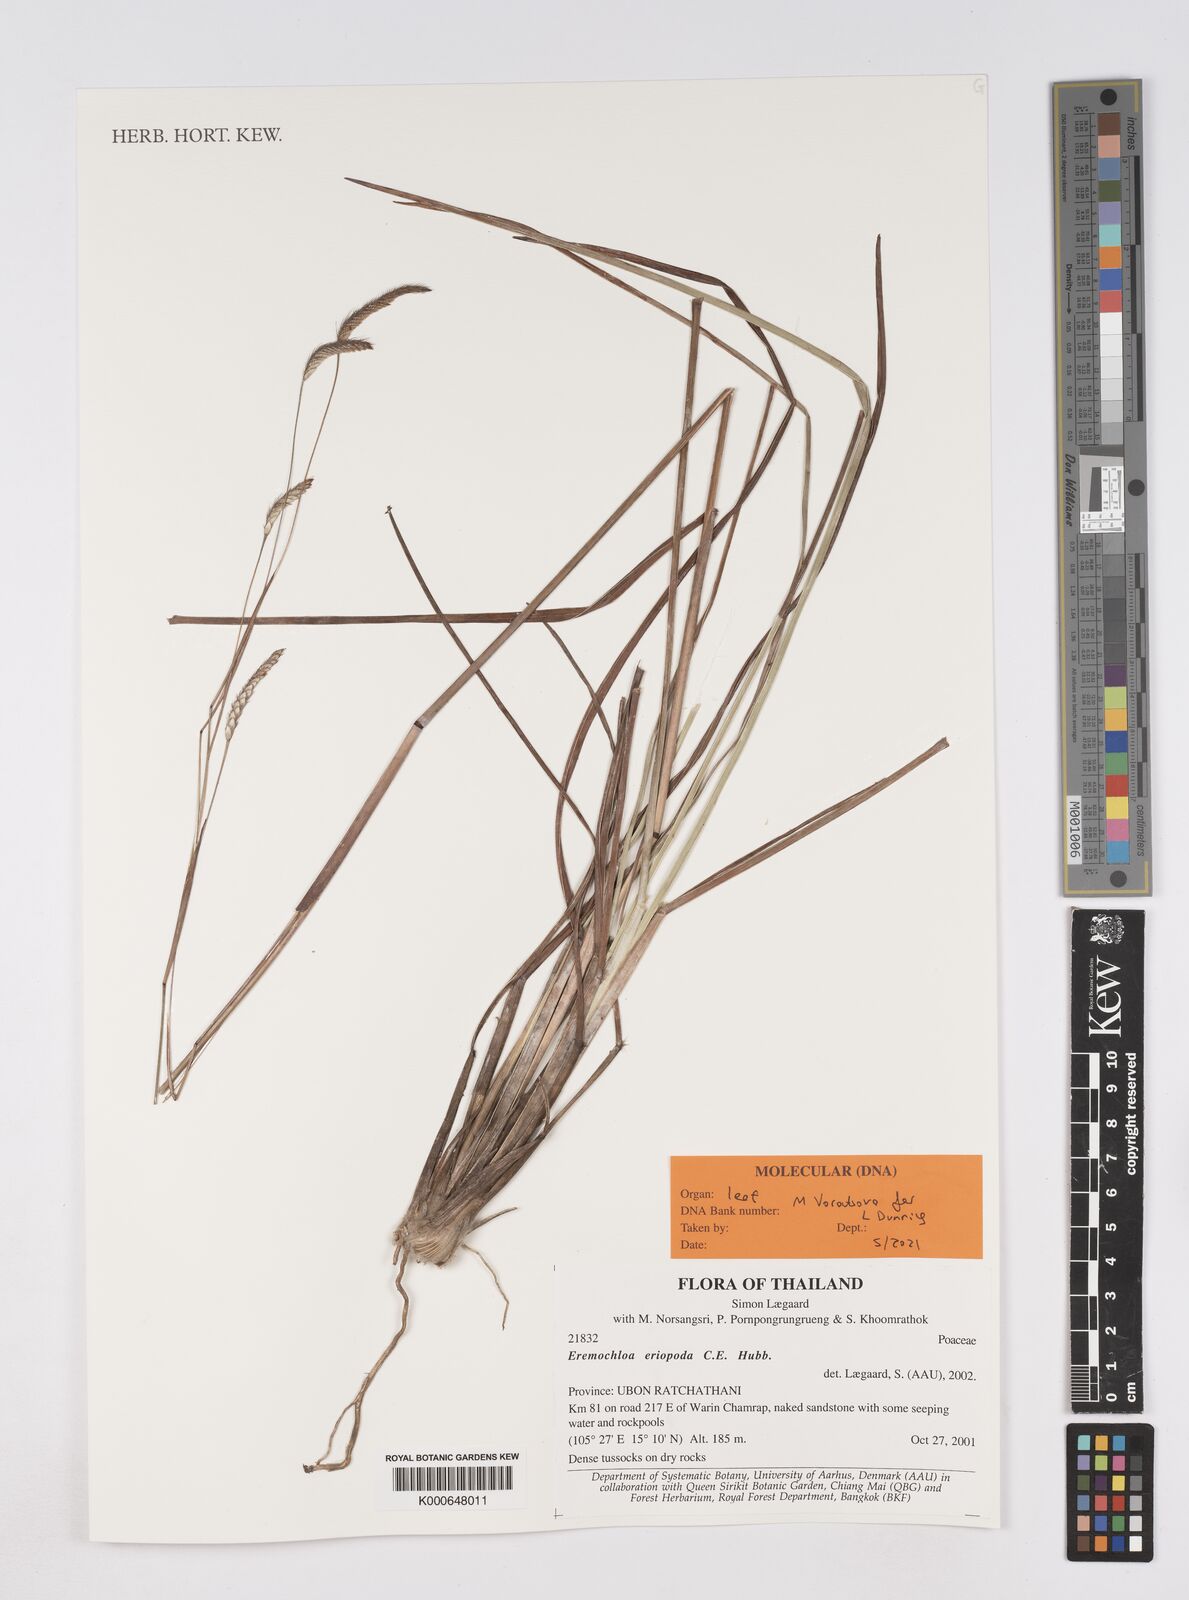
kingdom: Plantae
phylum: Tracheophyta
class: Liliopsida
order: Poales
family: Poaceae
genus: Eremochloa
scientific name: Eremochloa eriopoda
